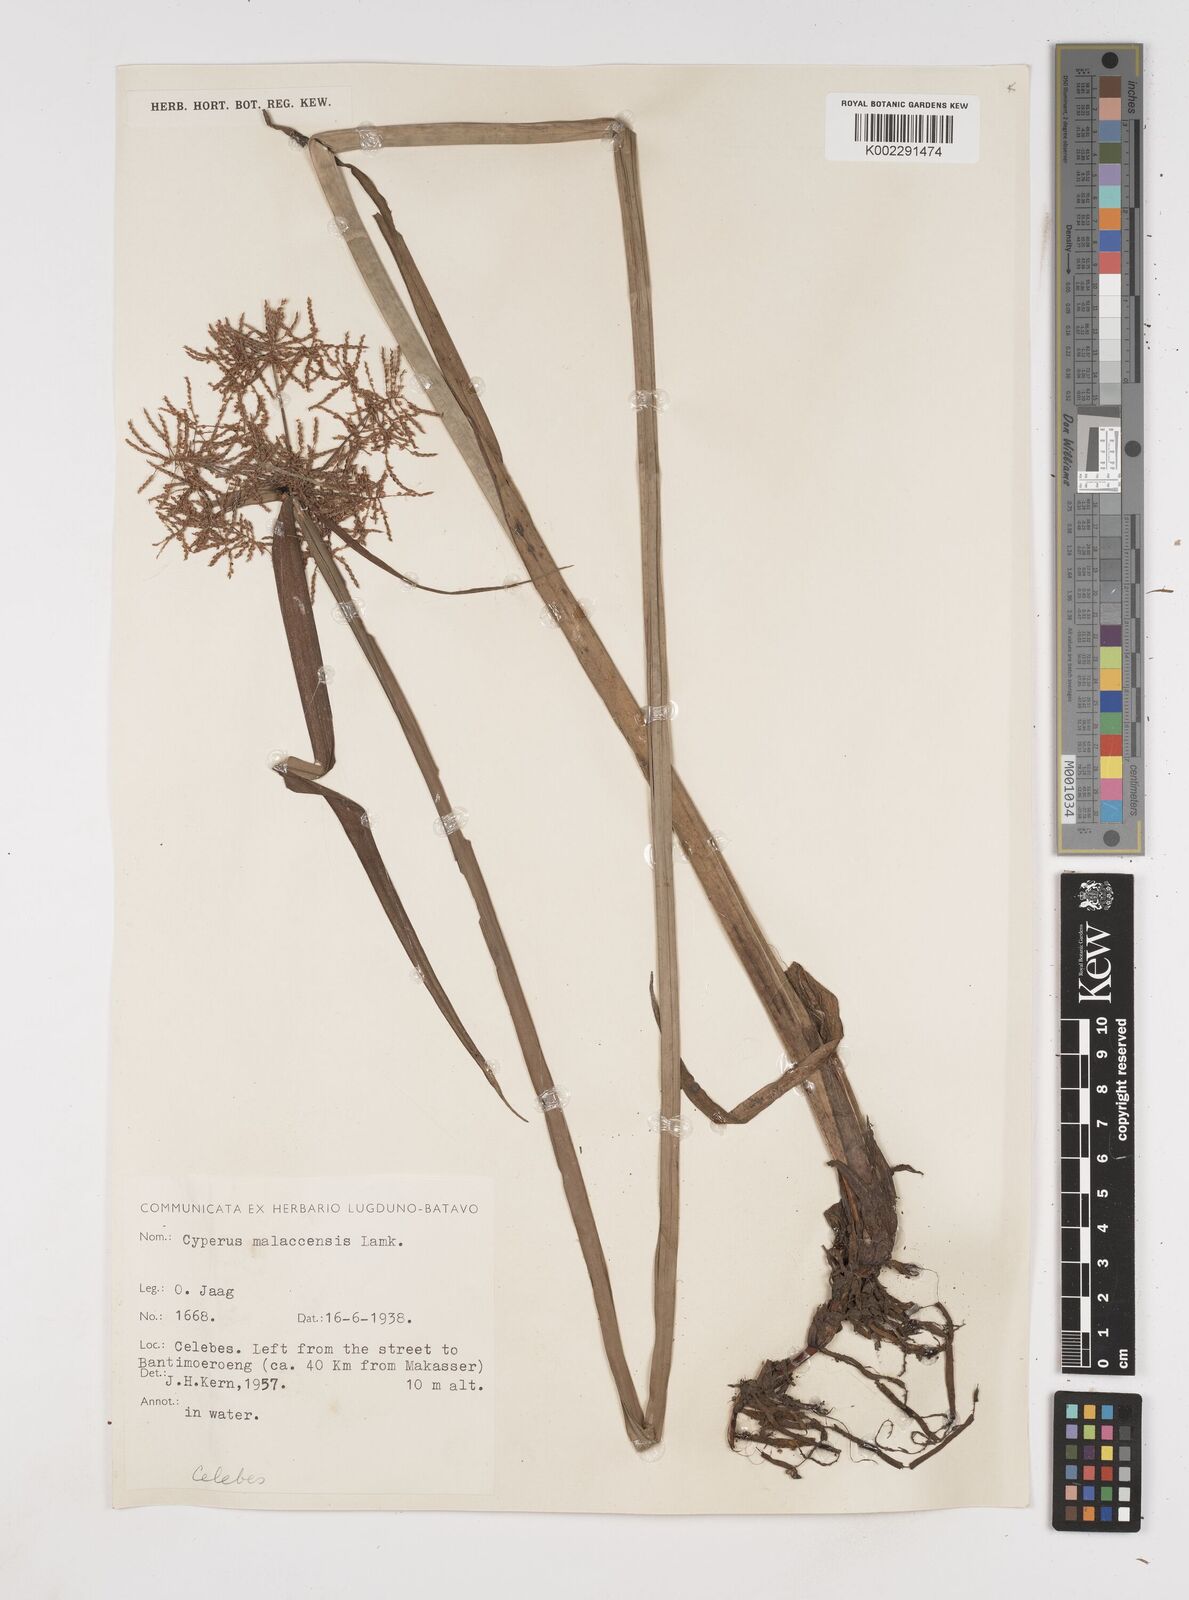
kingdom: Plantae
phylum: Tracheophyta
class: Liliopsida
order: Poales
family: Cyperaceae
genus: Cyperus
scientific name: Cyperus malaccensis
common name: Shichito matgrass
